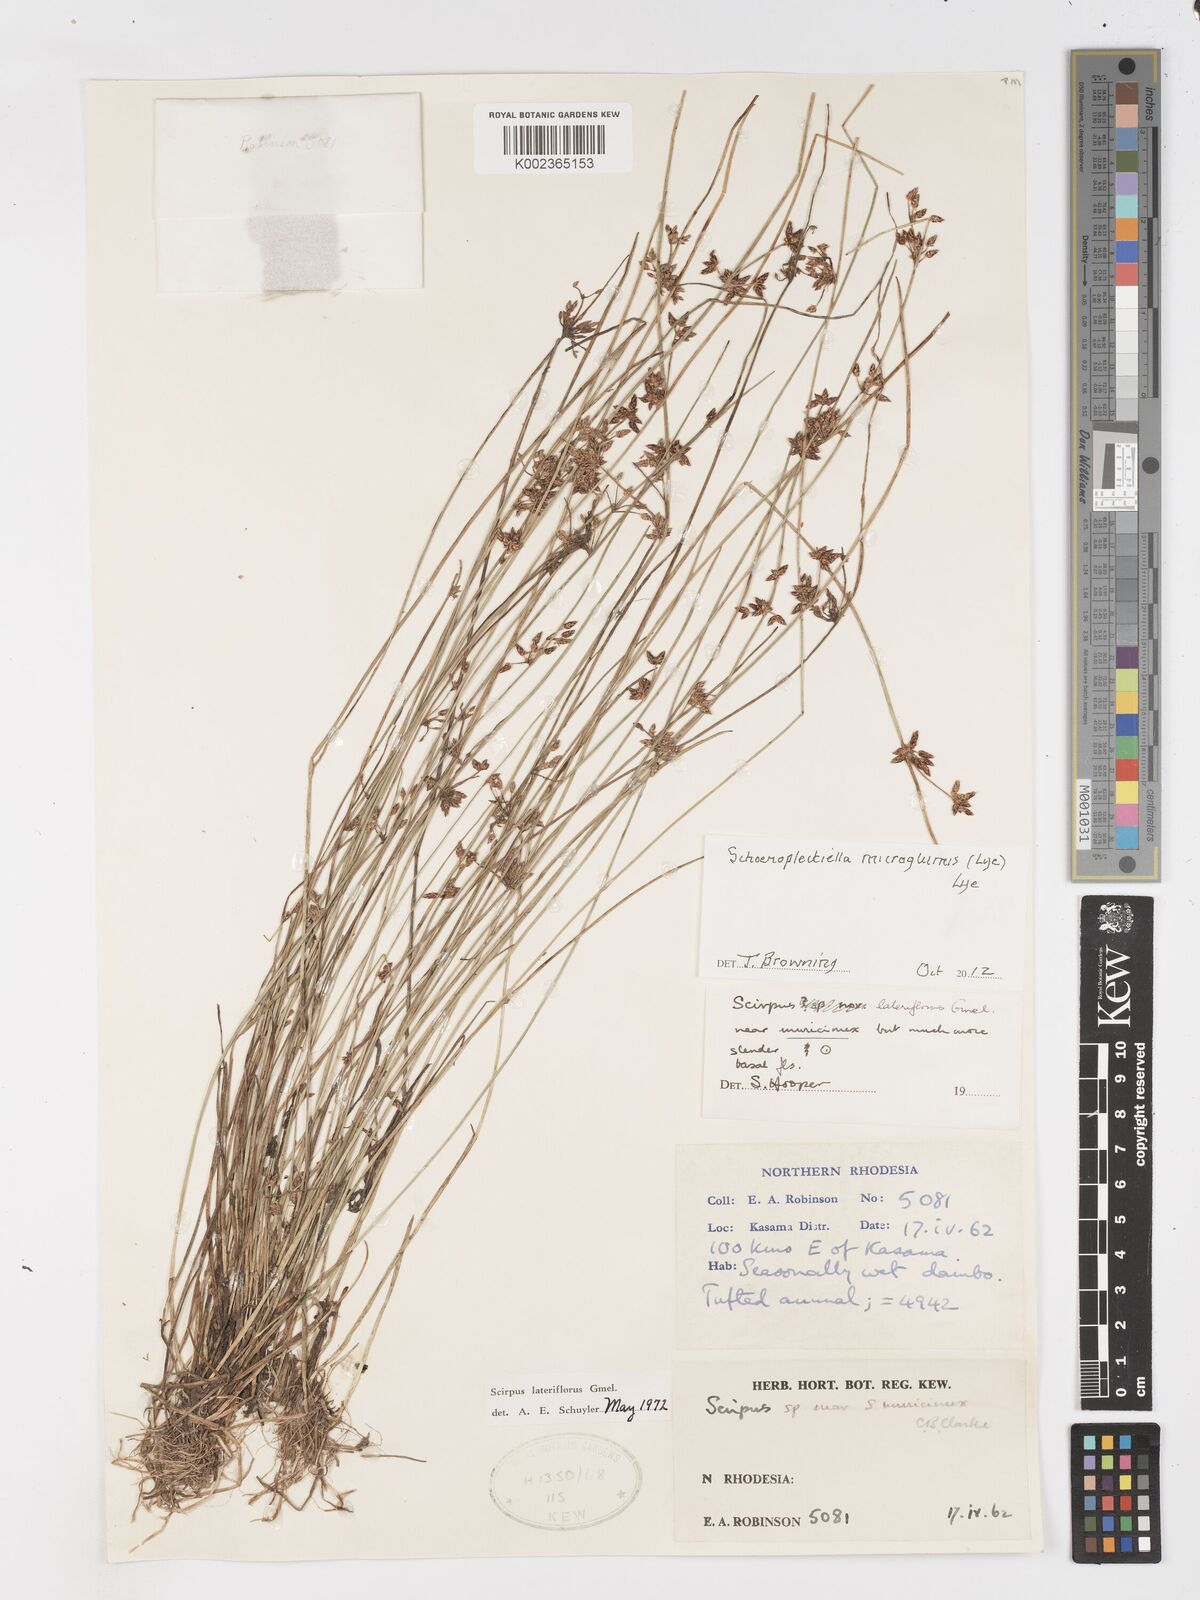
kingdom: Plantae
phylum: Tracheophyta
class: Liliopsida
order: Poales
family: Cyperaceae
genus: Schoenoplectiella
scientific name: Schoenoplectiella microglumis
